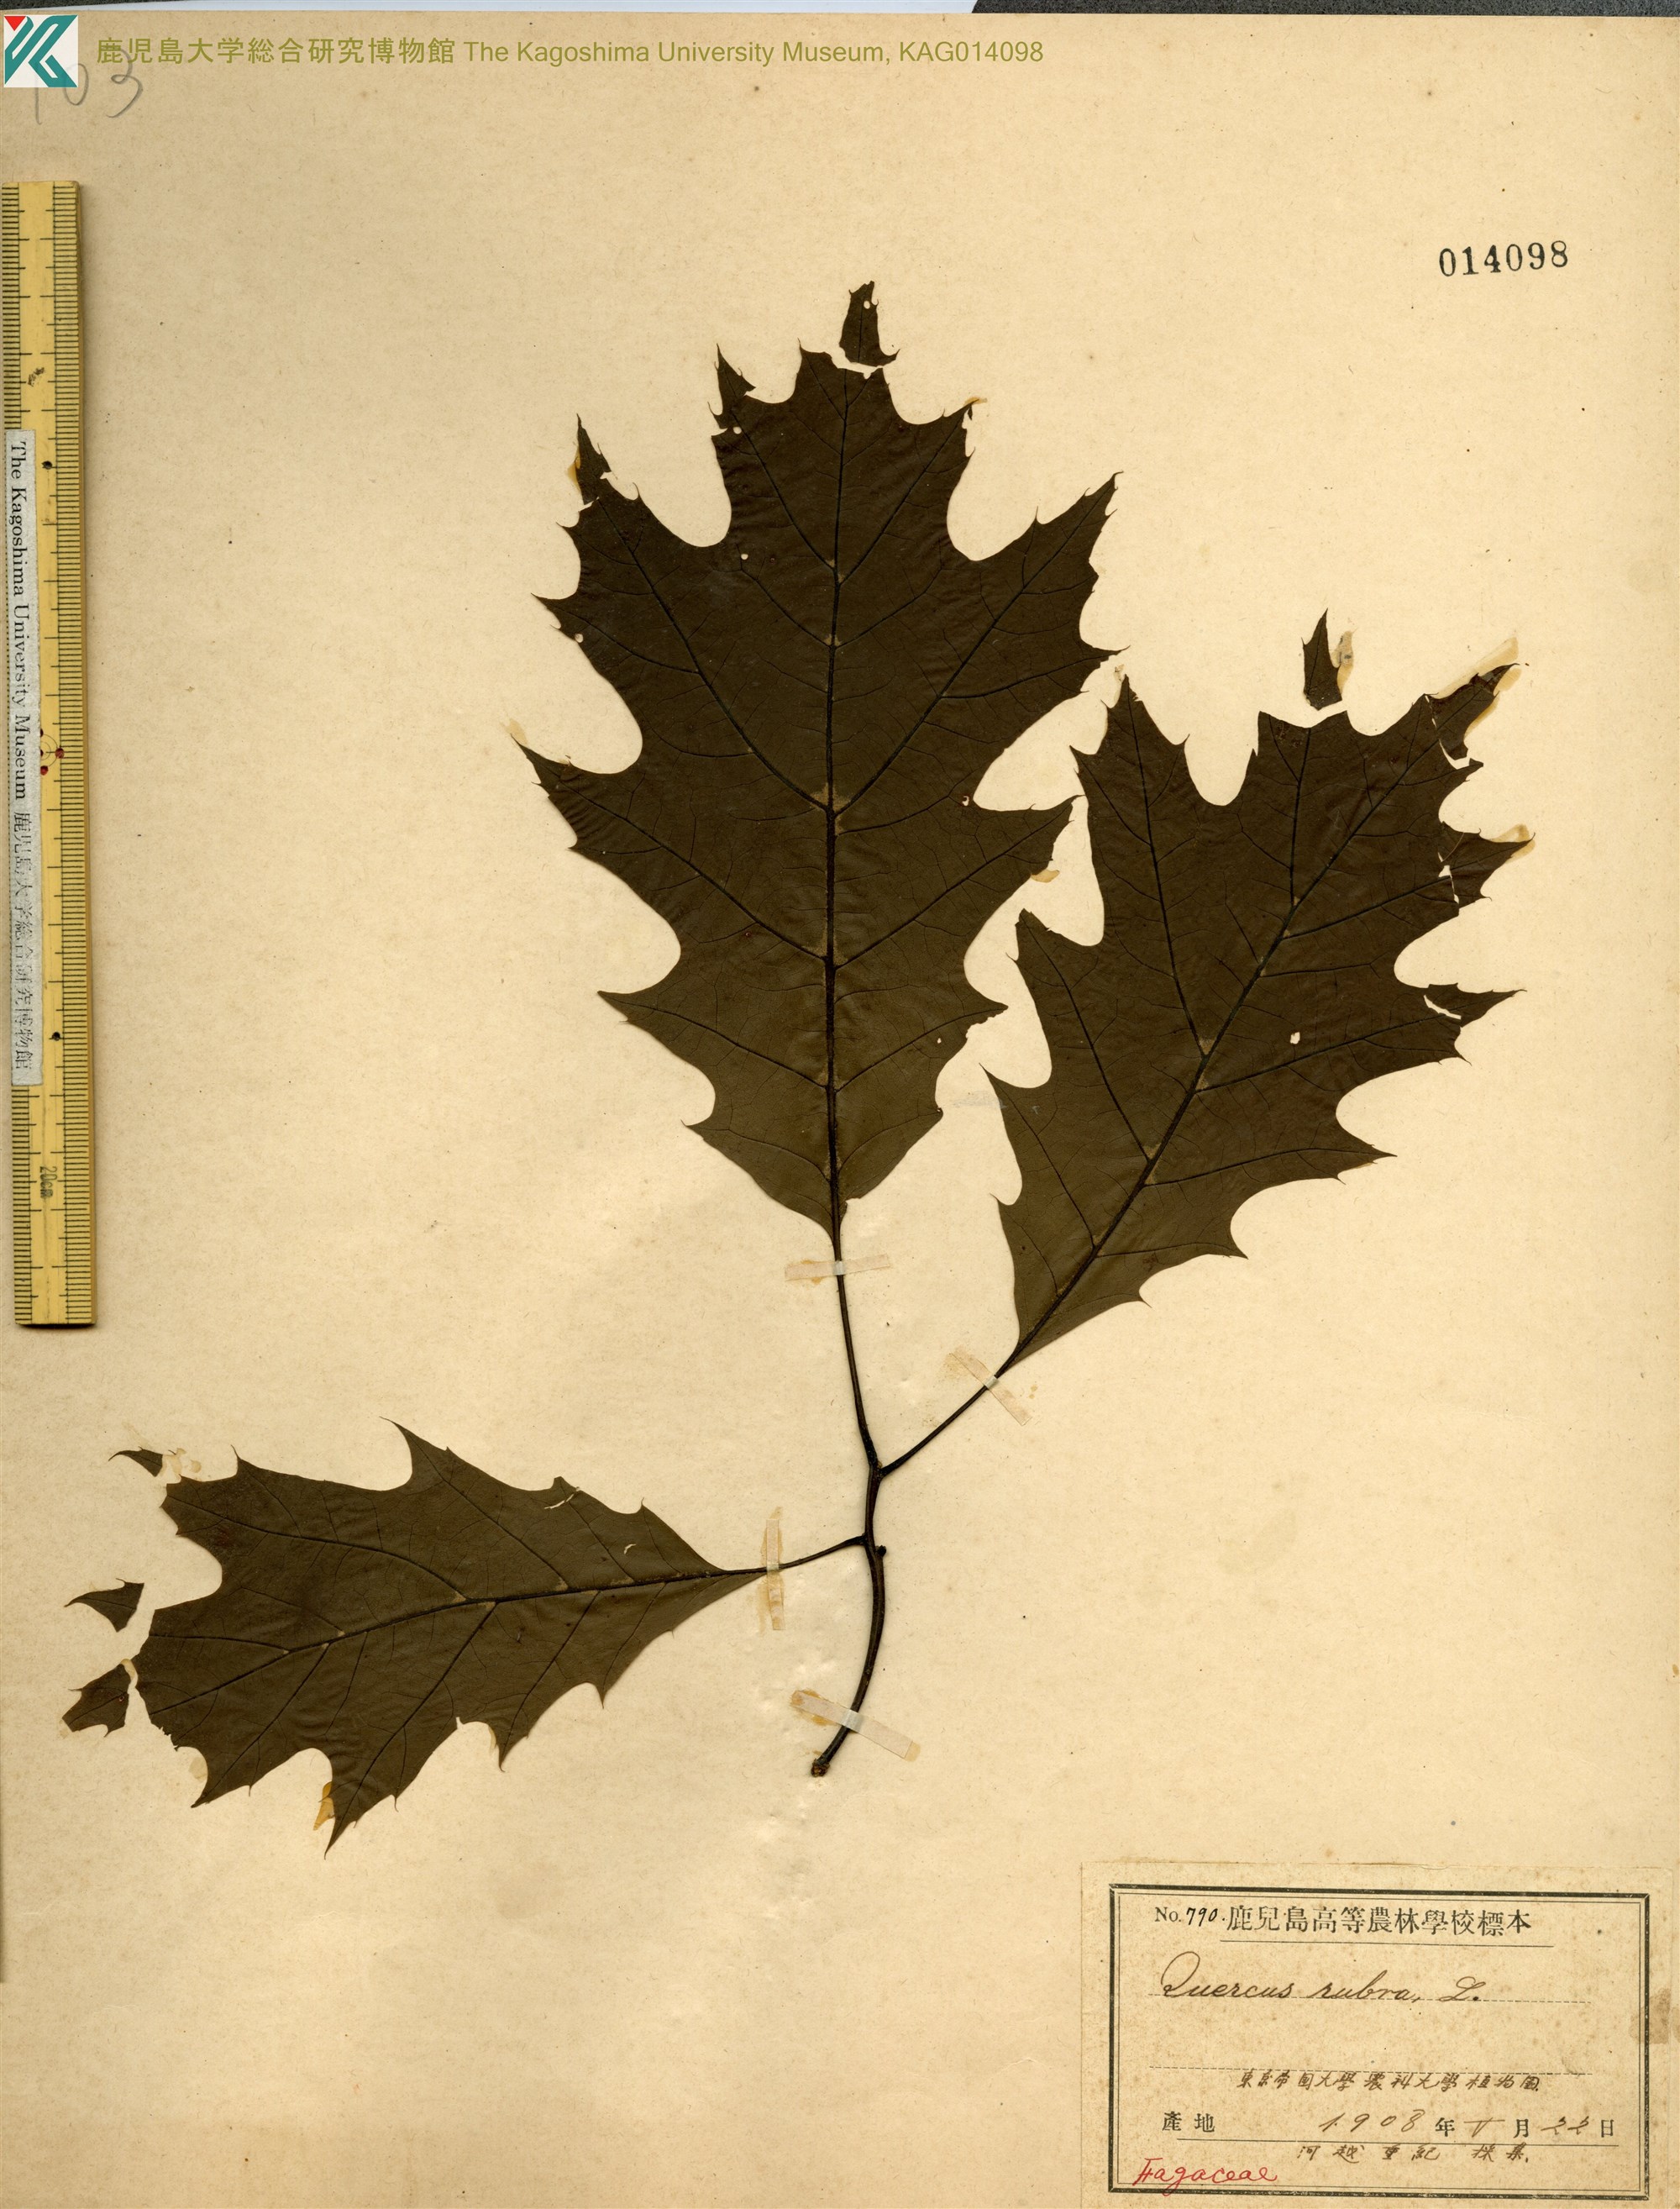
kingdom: Plantae
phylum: Tracheophyta
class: Magnoliopsida
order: Fagales
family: Fagaceae
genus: Quercus
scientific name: Quercus palustris
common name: Pin oak
